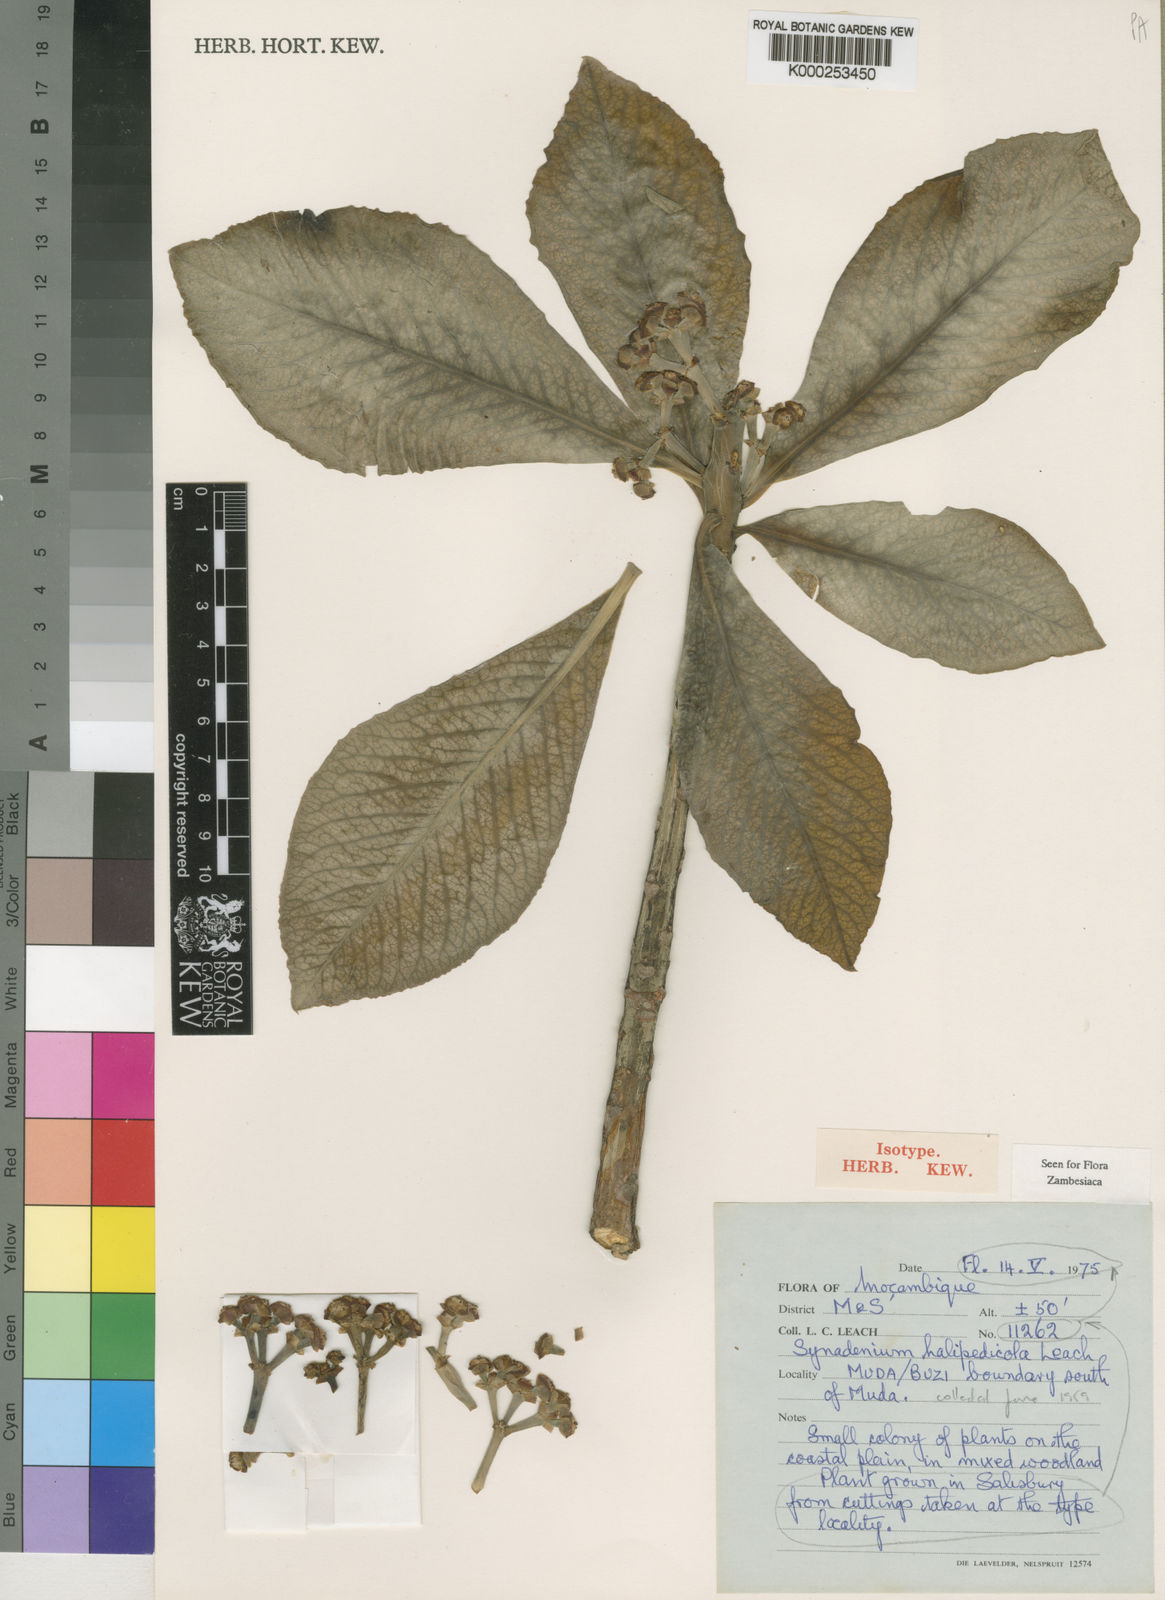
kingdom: Plantae
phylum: Tracheophyta
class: Magnoliopsida
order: Malpighiales
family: Euphorbiaceae
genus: Euphorbia
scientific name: Euphorbia neohalipedicola
